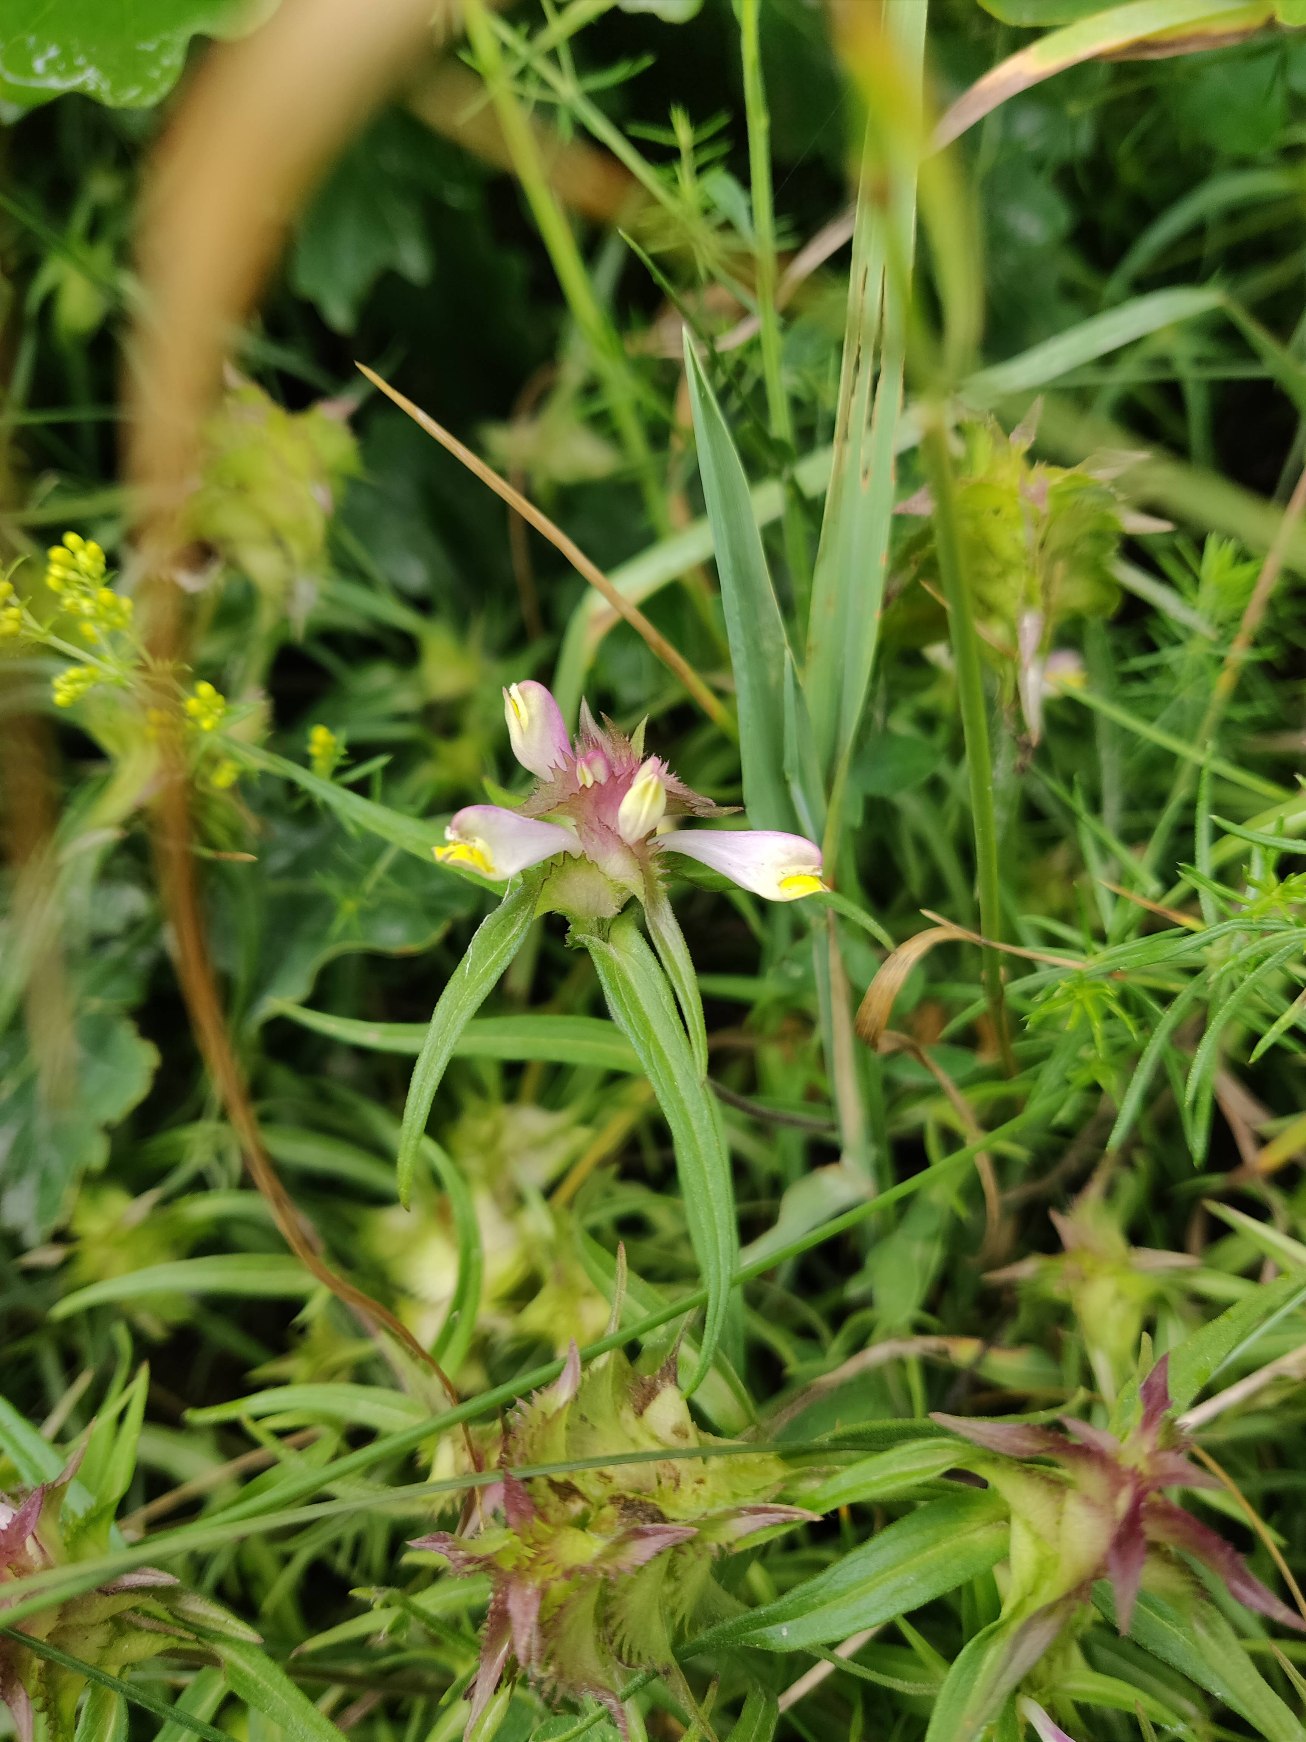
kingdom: Plantae
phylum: Tracheophyta
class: Magnoliopsida
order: Lamiales
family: Orobanchaceae
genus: Melampyrum
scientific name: Melampyrum cristatum
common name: Kantet kohvede
